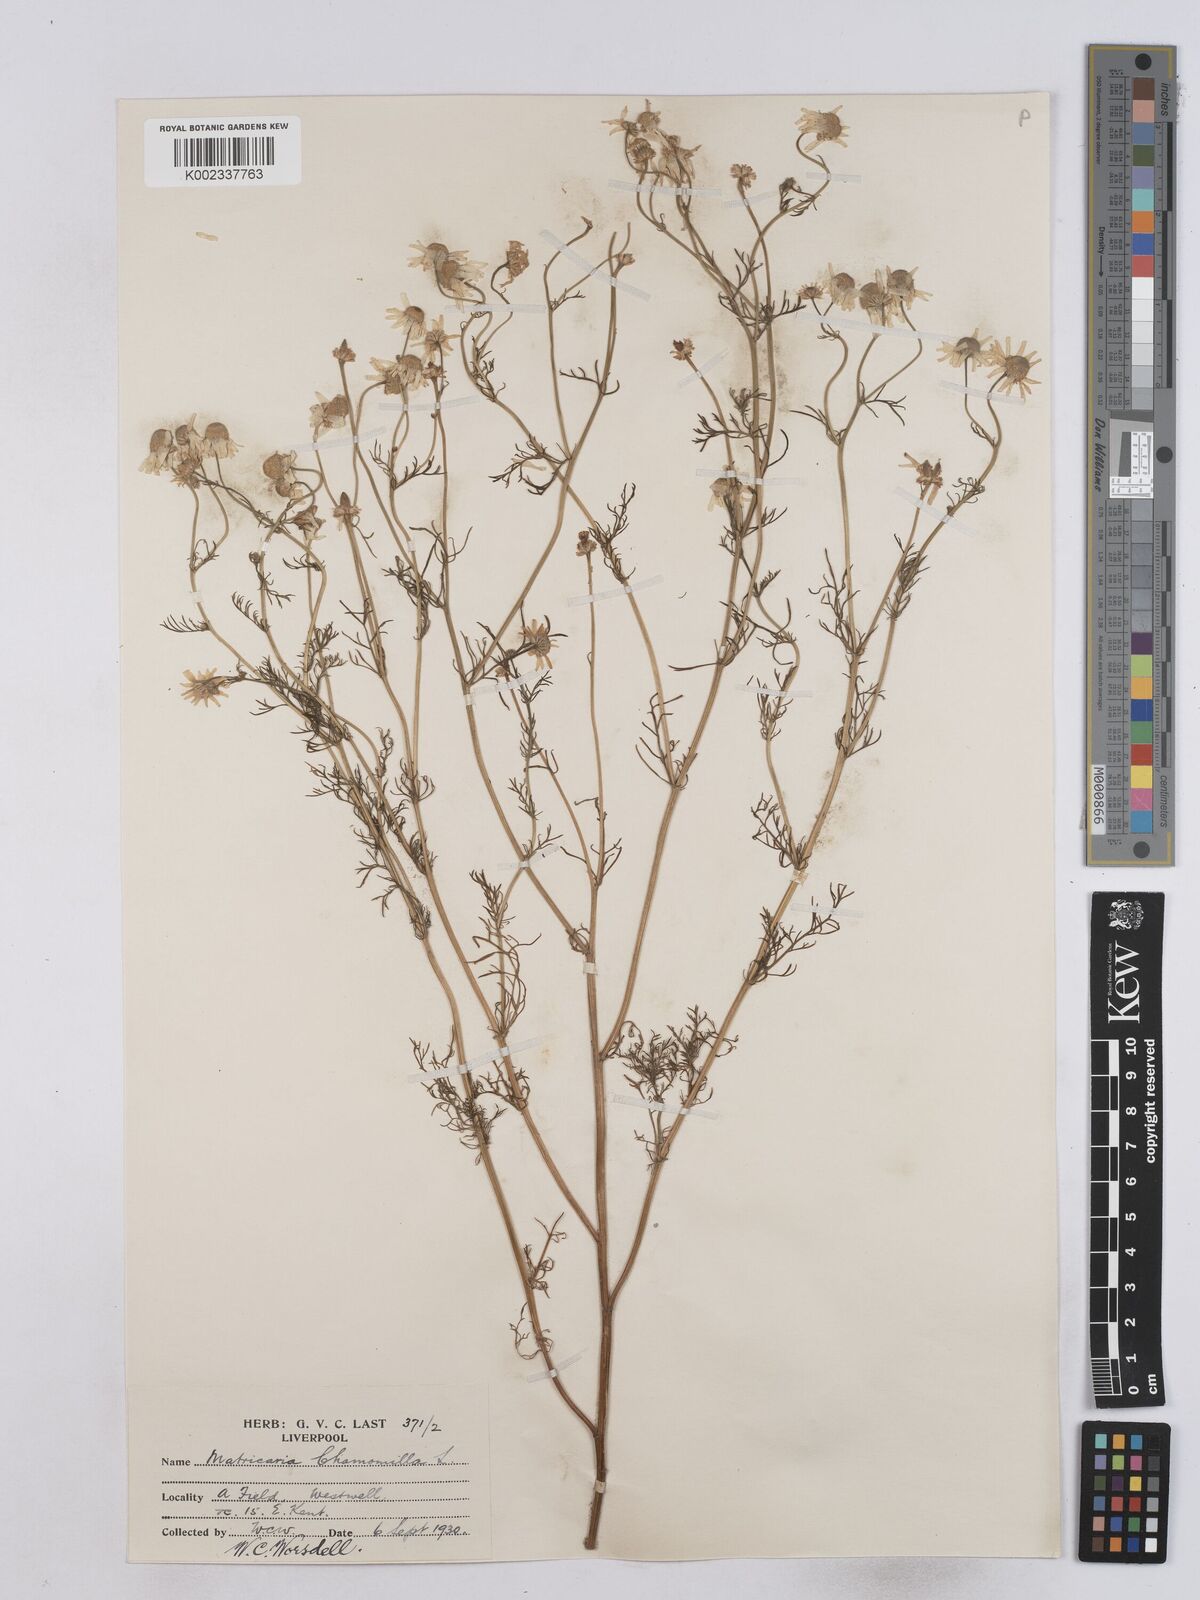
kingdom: Plantae
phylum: Tracheophyta
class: Magnoliopsida
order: Asterales
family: Asteraceae
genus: Matricaria
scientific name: Matricaria chamomilla
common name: Scented mayweed
